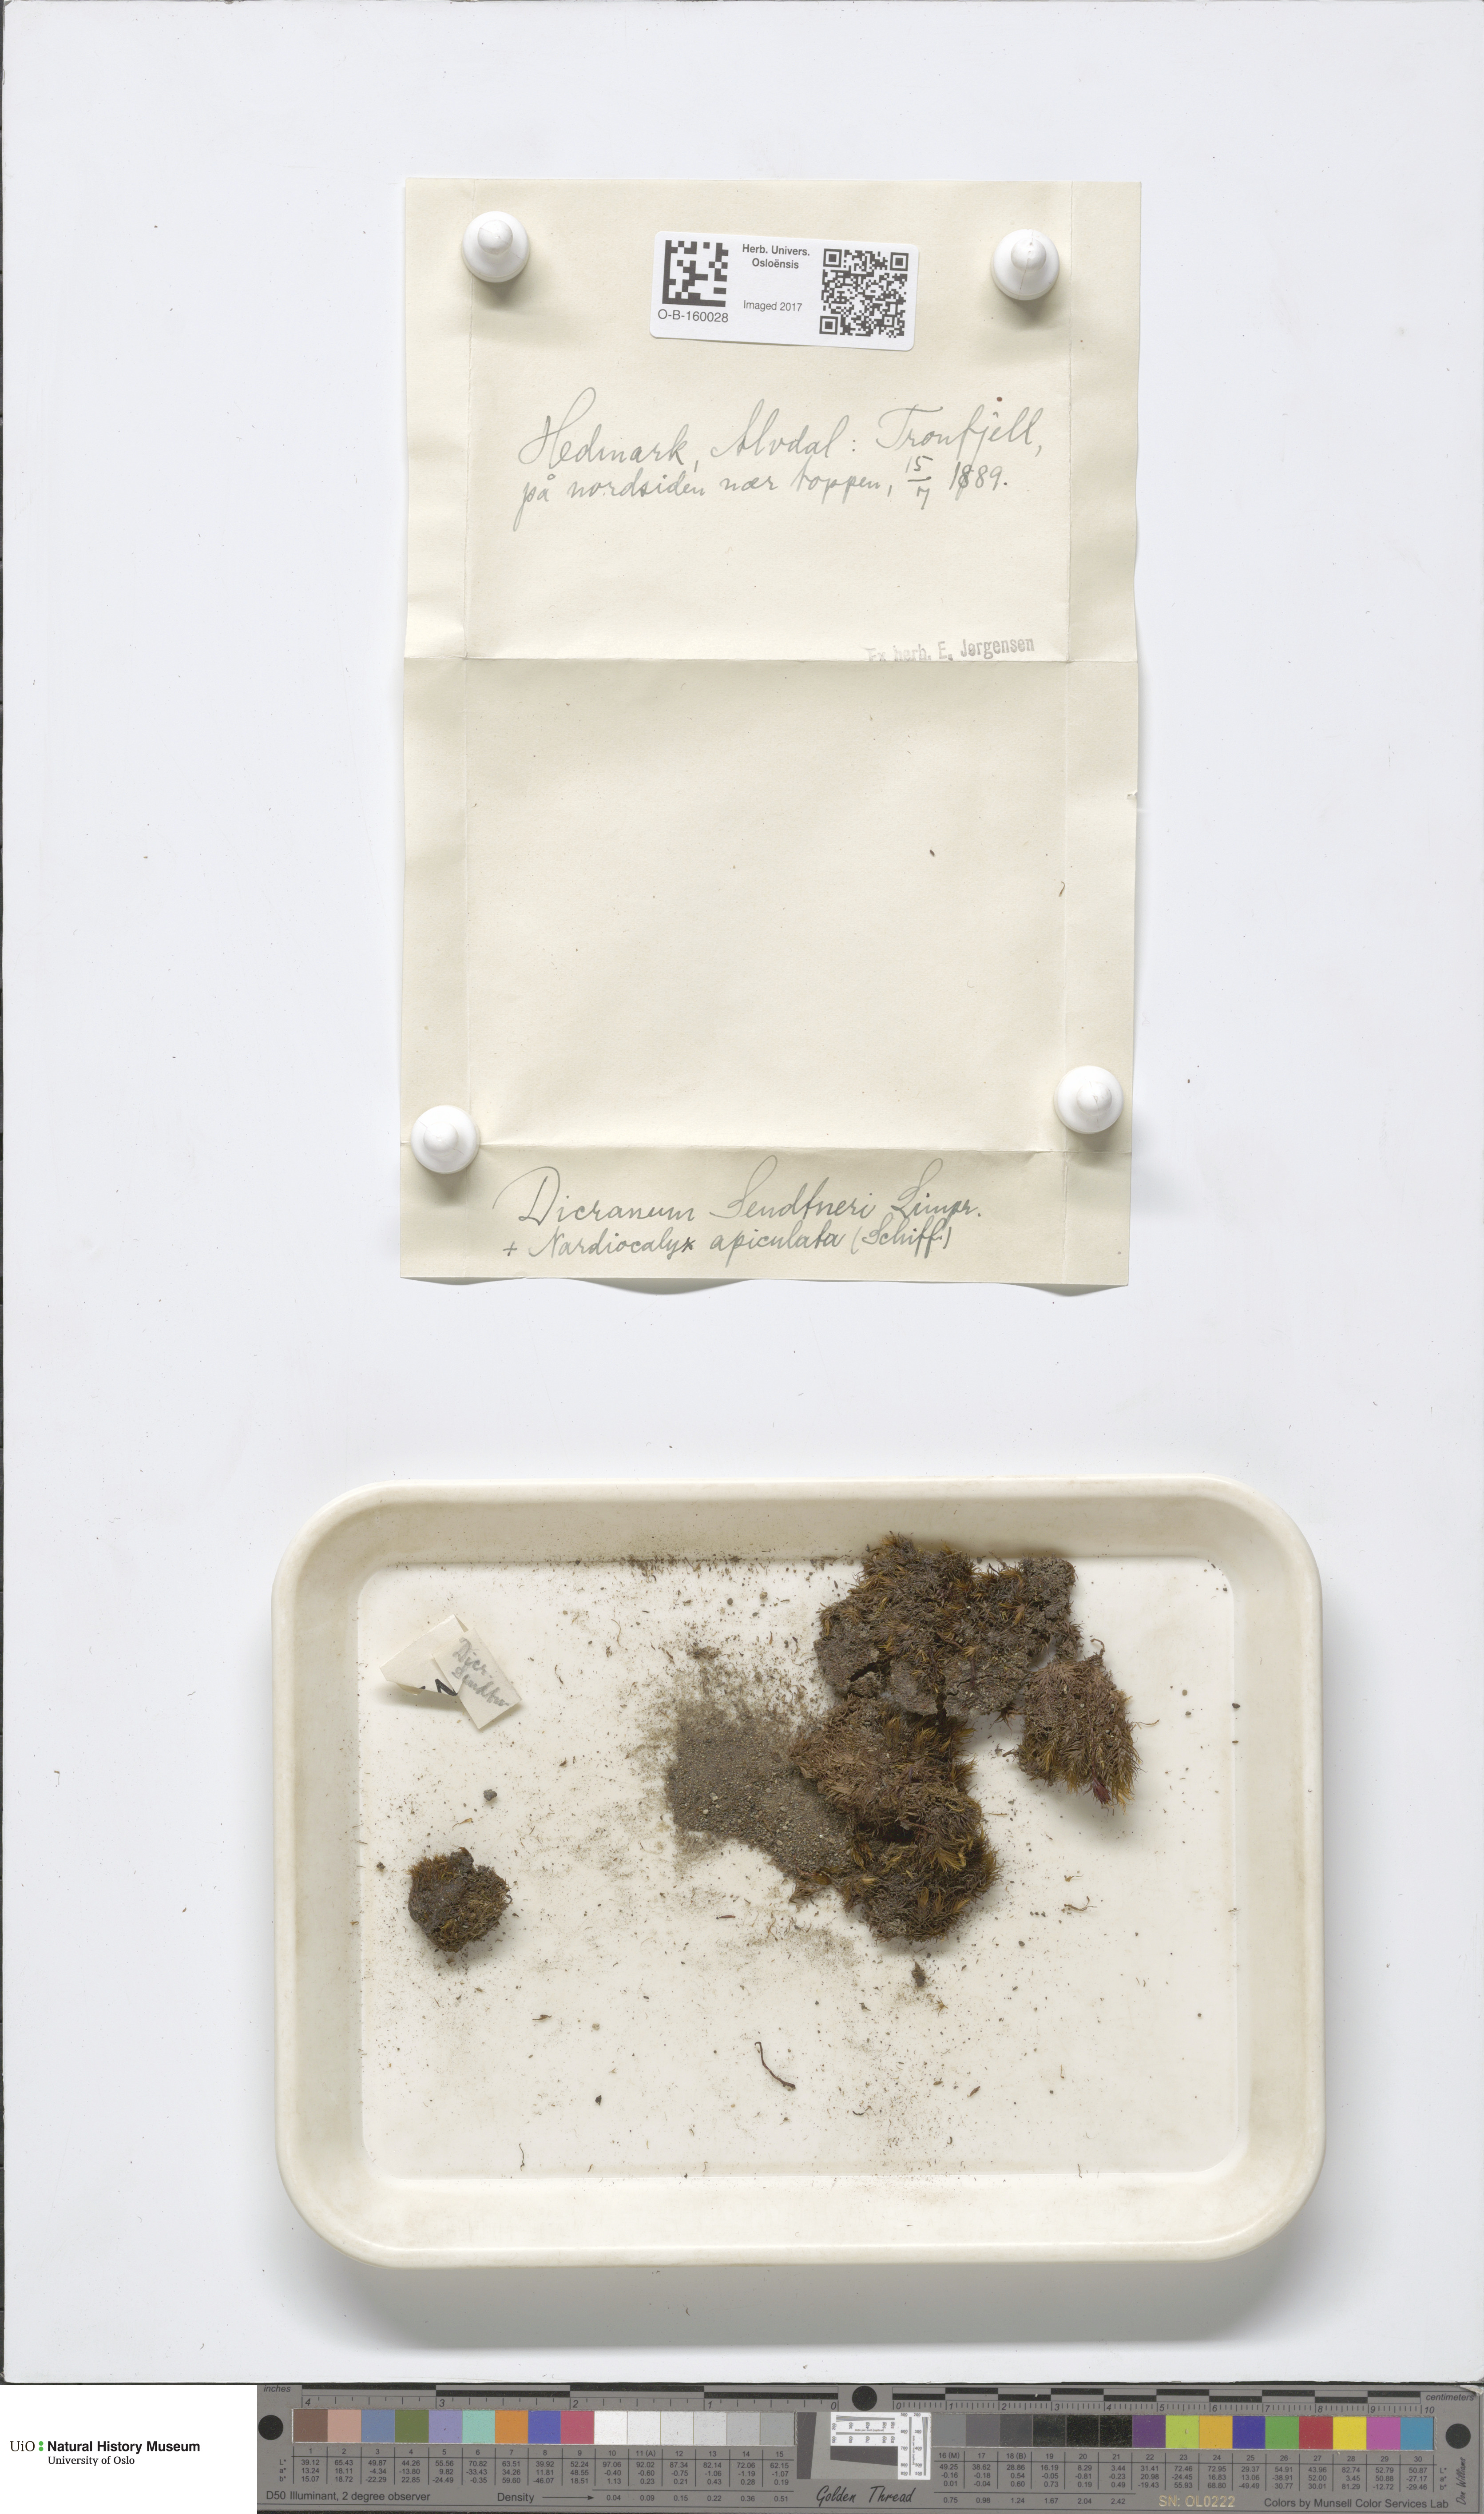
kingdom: Plantae
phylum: Bryophyta
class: Bryopsida
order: Dicranales
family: Dicranaceae
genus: Dicranum
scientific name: Dicranum elongatum
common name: Long-forked broom moss
